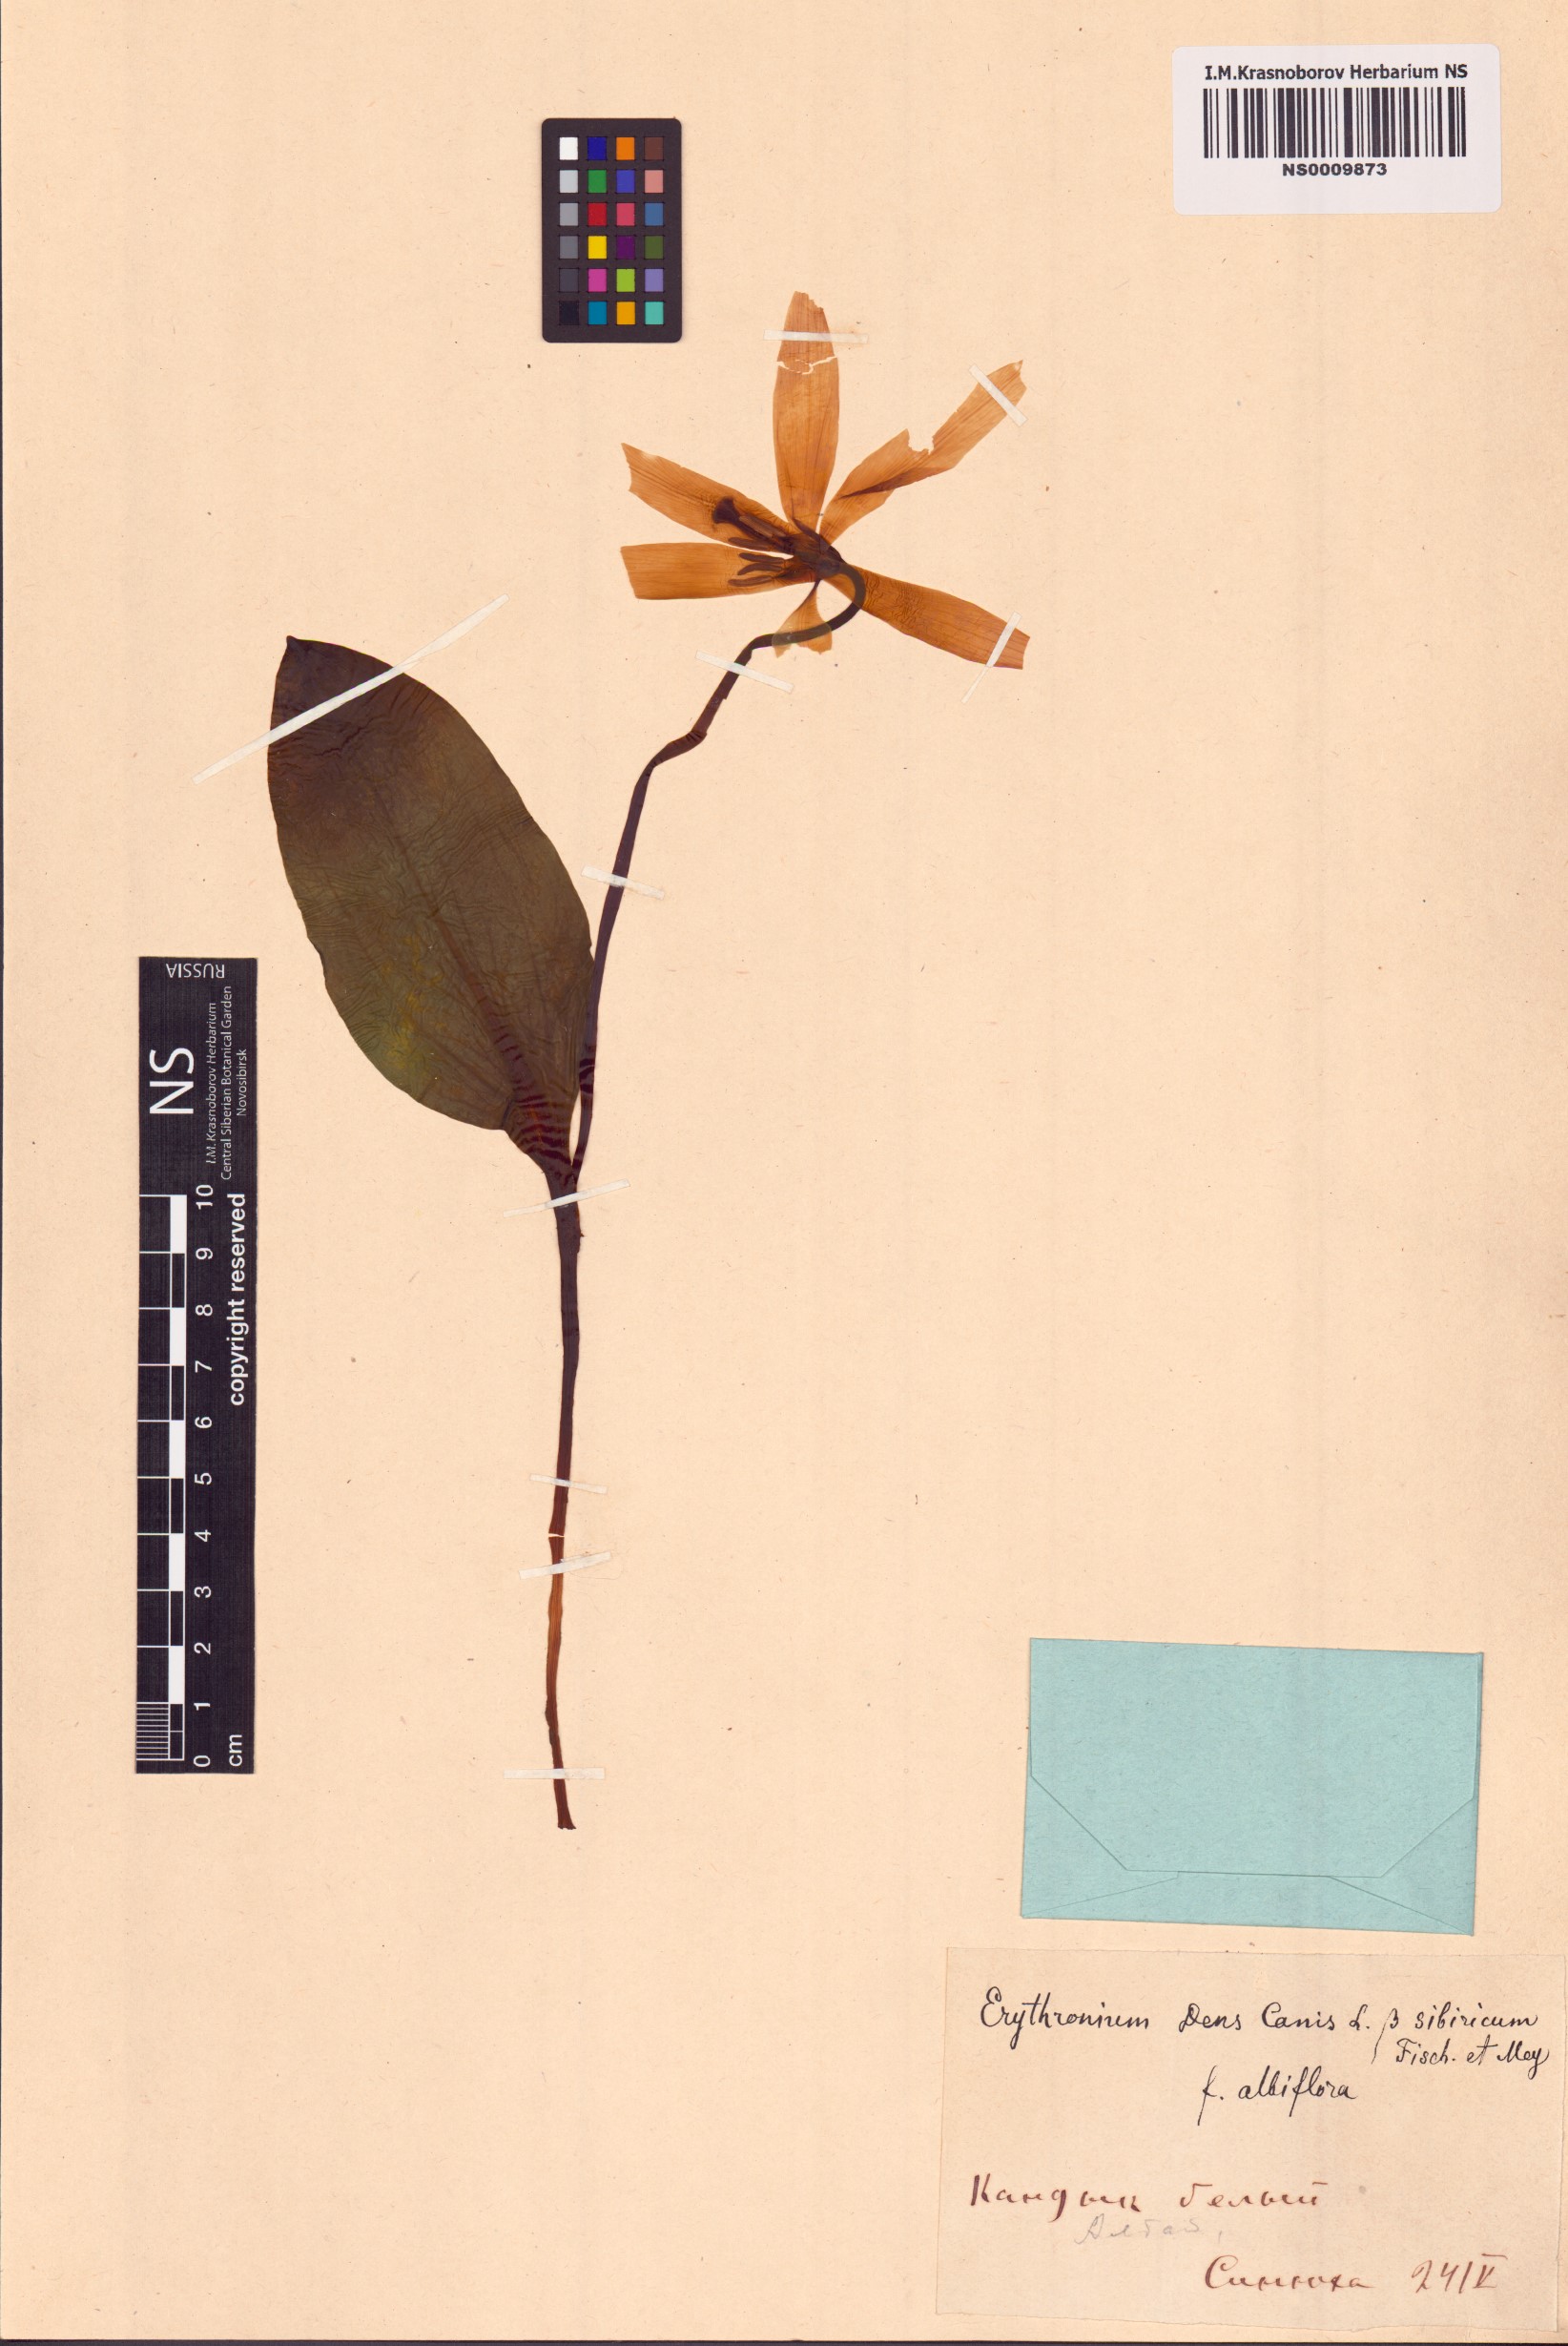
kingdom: Plantae
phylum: Tracheophyta
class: Liliopsida
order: Liliales
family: Liliaceae
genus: Erythronium
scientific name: Erythronium sibiricum
